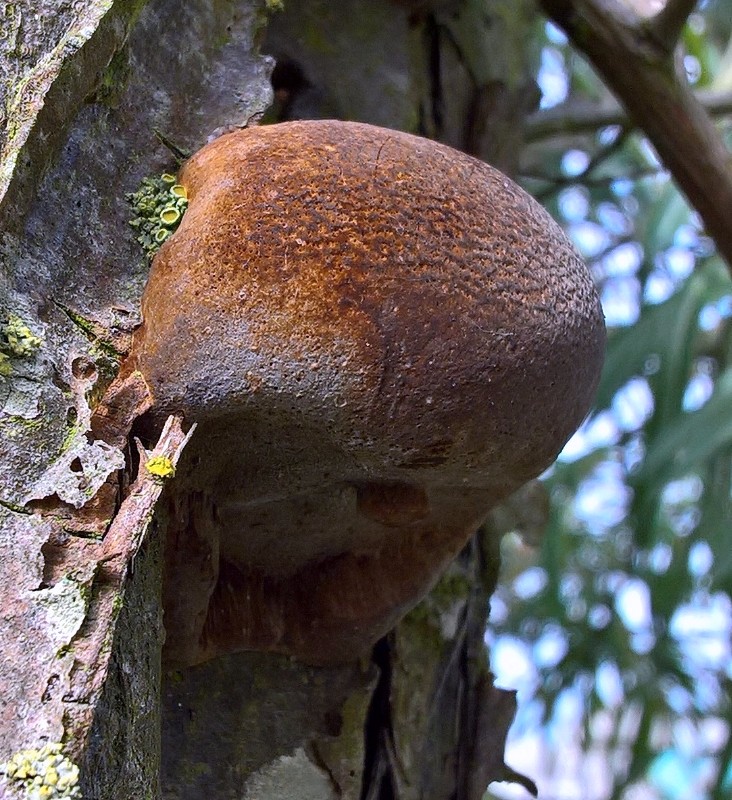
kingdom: Fungi
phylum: Basidiomycota
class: Agaricomycetes
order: Hymenochaetales
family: Hymenochaetaceae
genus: Fomitiporia
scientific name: Fomitiporia hippophaeicola
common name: havtorn-ildporesvamp
